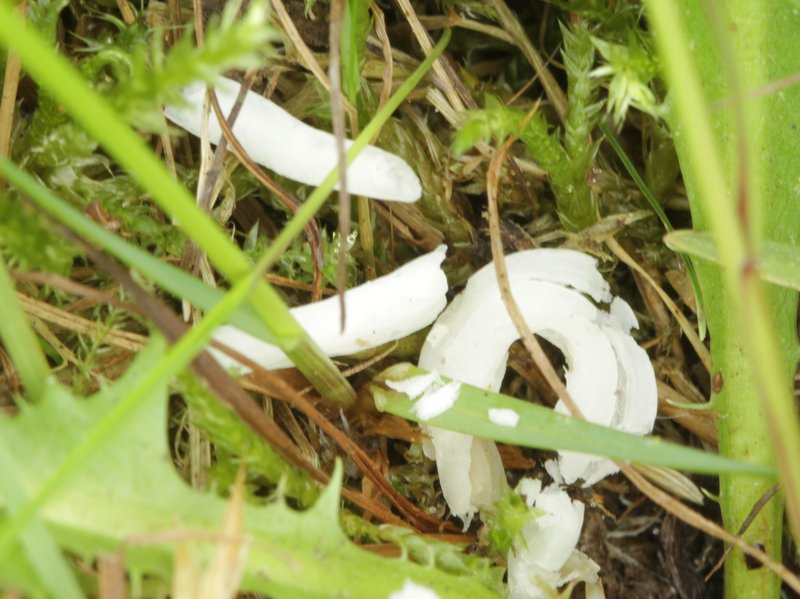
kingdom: Fungi
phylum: Basidiomycota
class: Agaricomycetes
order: Agaricales
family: Clavariaceae
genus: Clavaria
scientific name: Clavaria fragilis
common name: bugtet køllesvamp
